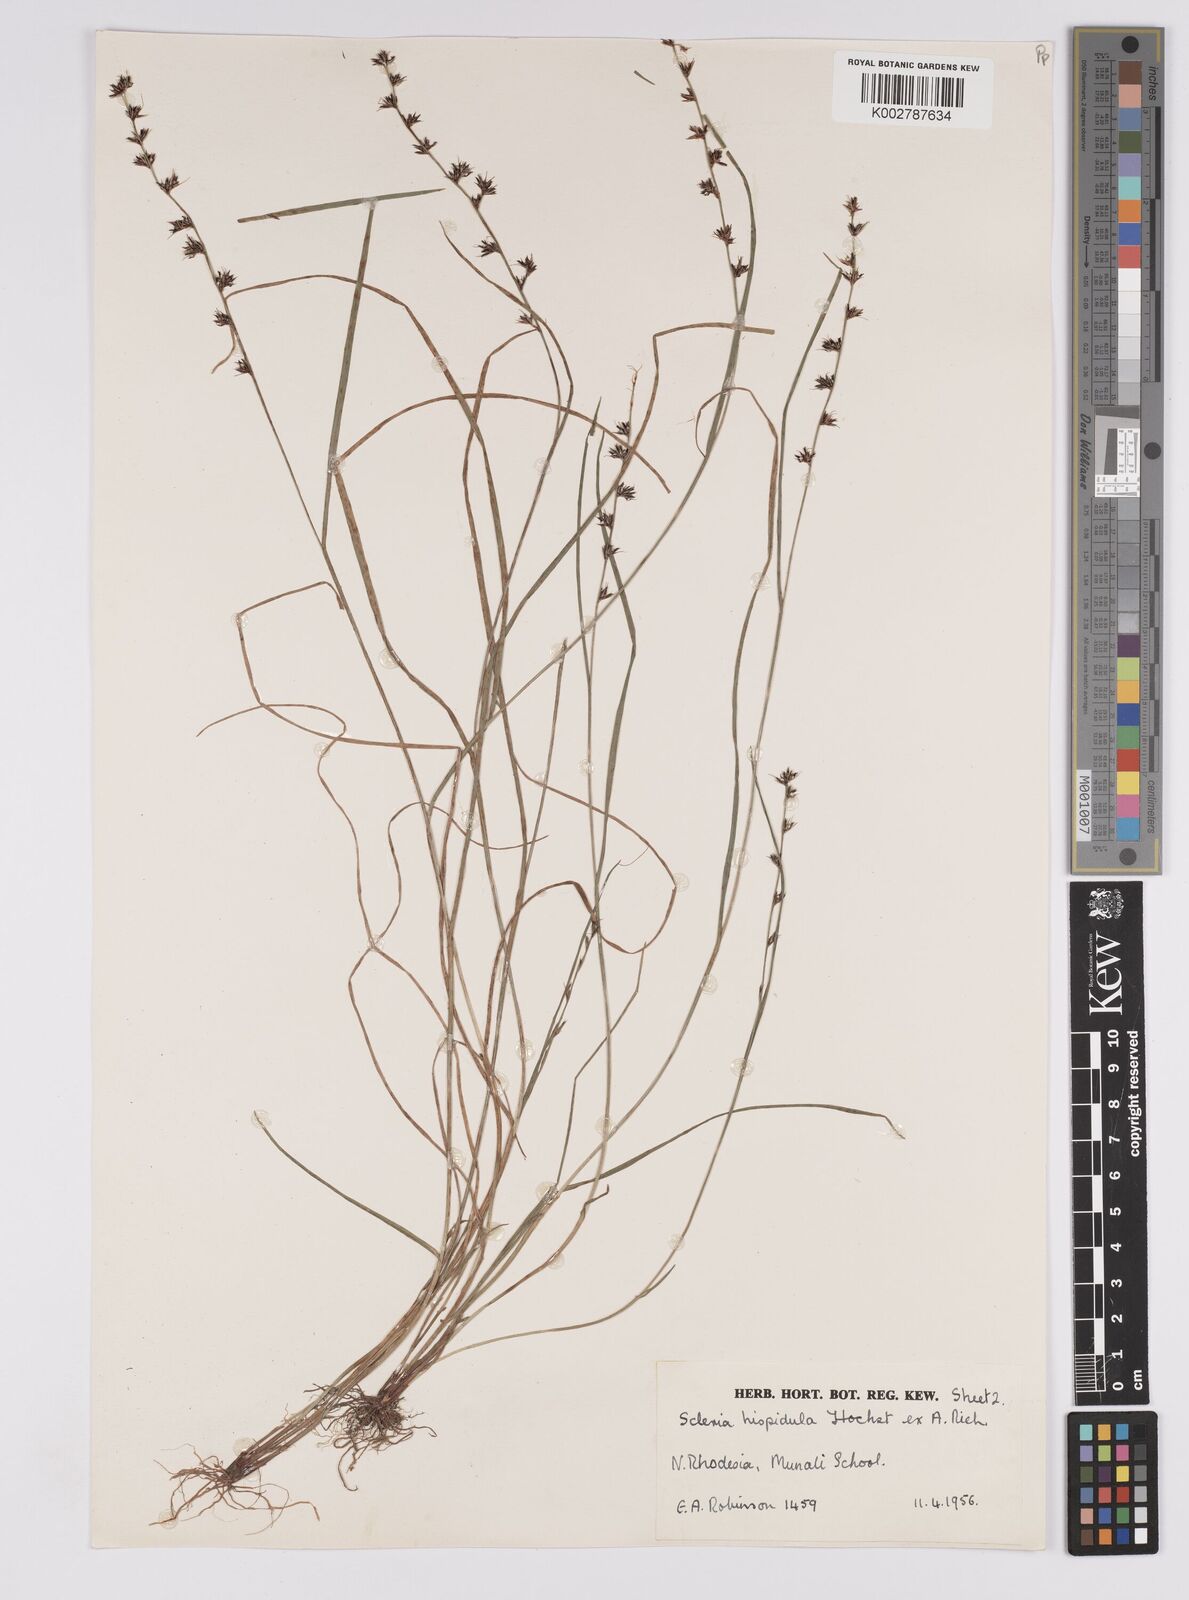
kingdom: Plantae
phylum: Tracheophyta
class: Liliopsida
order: Poales
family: Cyperaceae
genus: Scleria
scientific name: Scleria hispidula
